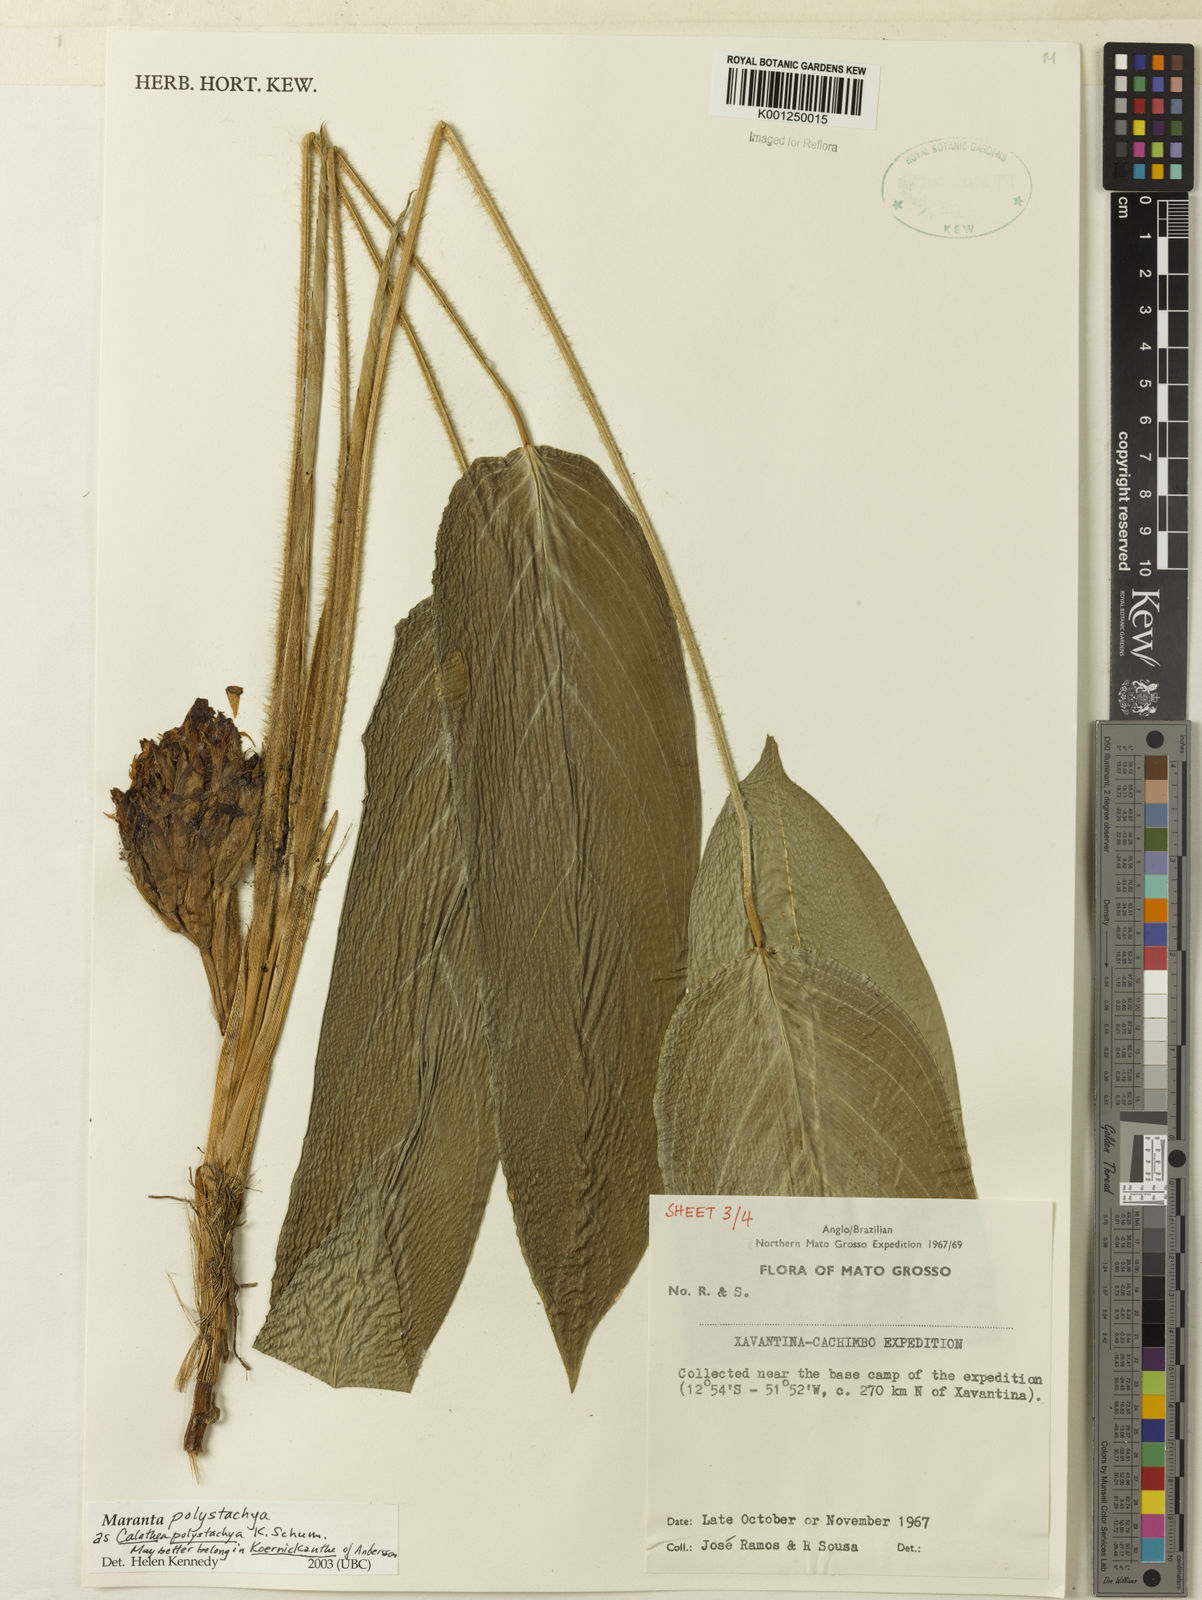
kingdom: Plantae
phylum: Tracheophyta
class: Liliopsida
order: Zingiberales
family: Marantaceae
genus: Ischnosiphon
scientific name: Ischnosiphon polyphyllus
